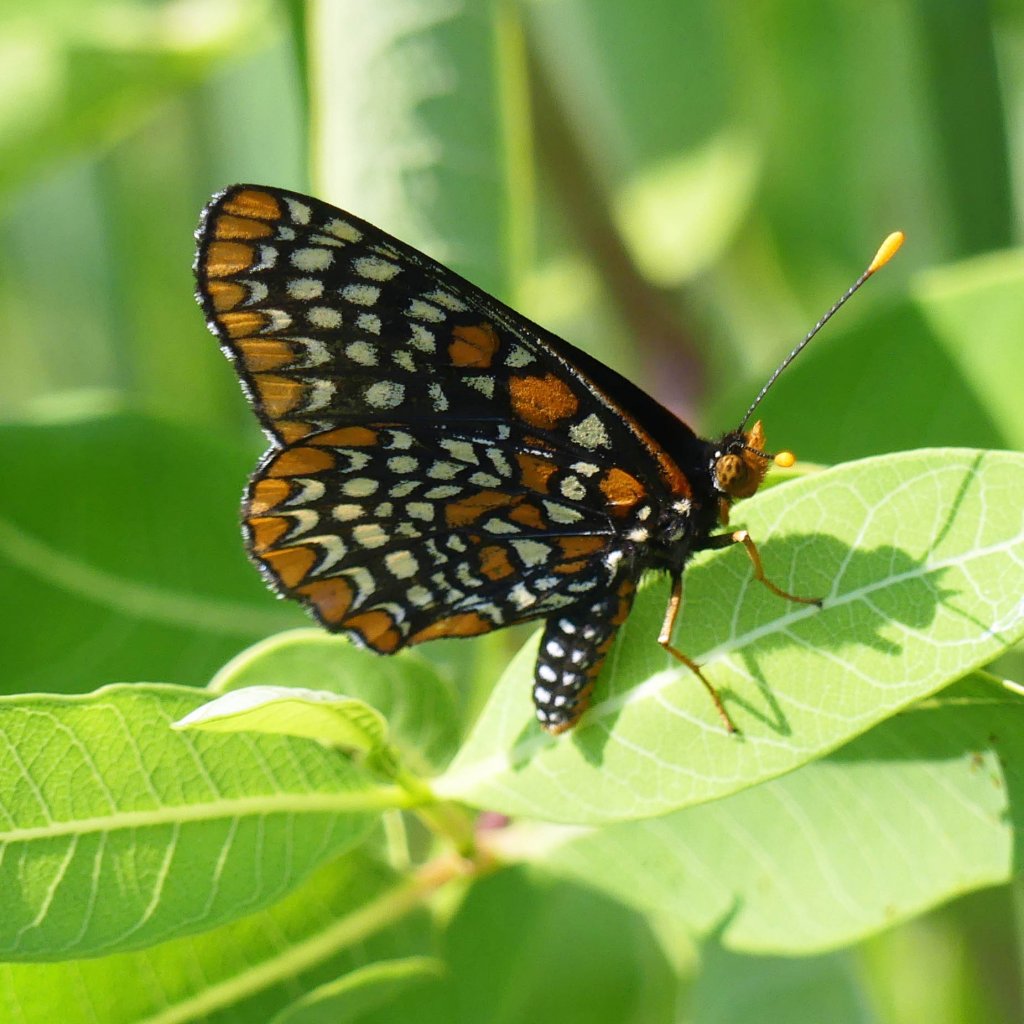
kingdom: Animalia
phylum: Arthropoda
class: Insecta
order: Lepidoptera
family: Nymphalidae
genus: Euphydryas
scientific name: Euphydryas phaeton
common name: Baltimore Checkerspot
